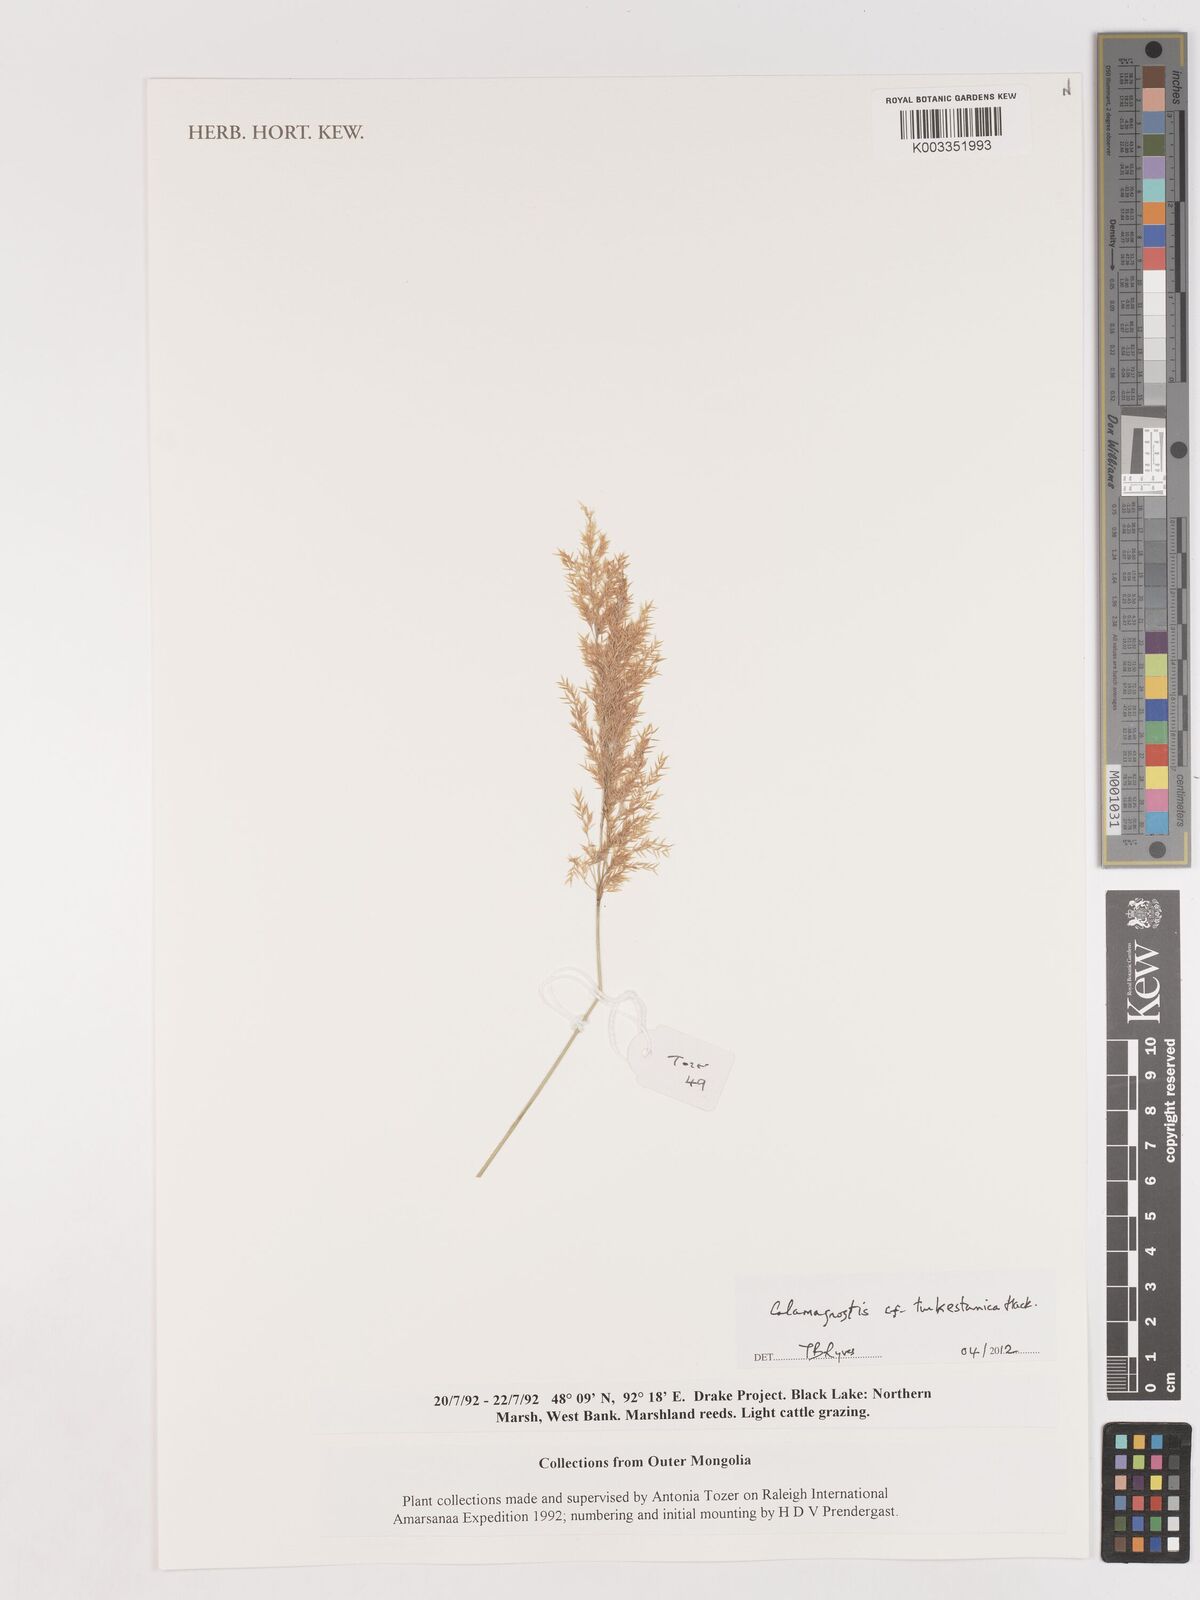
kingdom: Plantae
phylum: Tracheophyta
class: Liliopsida
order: Poales
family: Poaceae
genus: Calamagrostis
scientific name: Calamagrostis turkestanica
